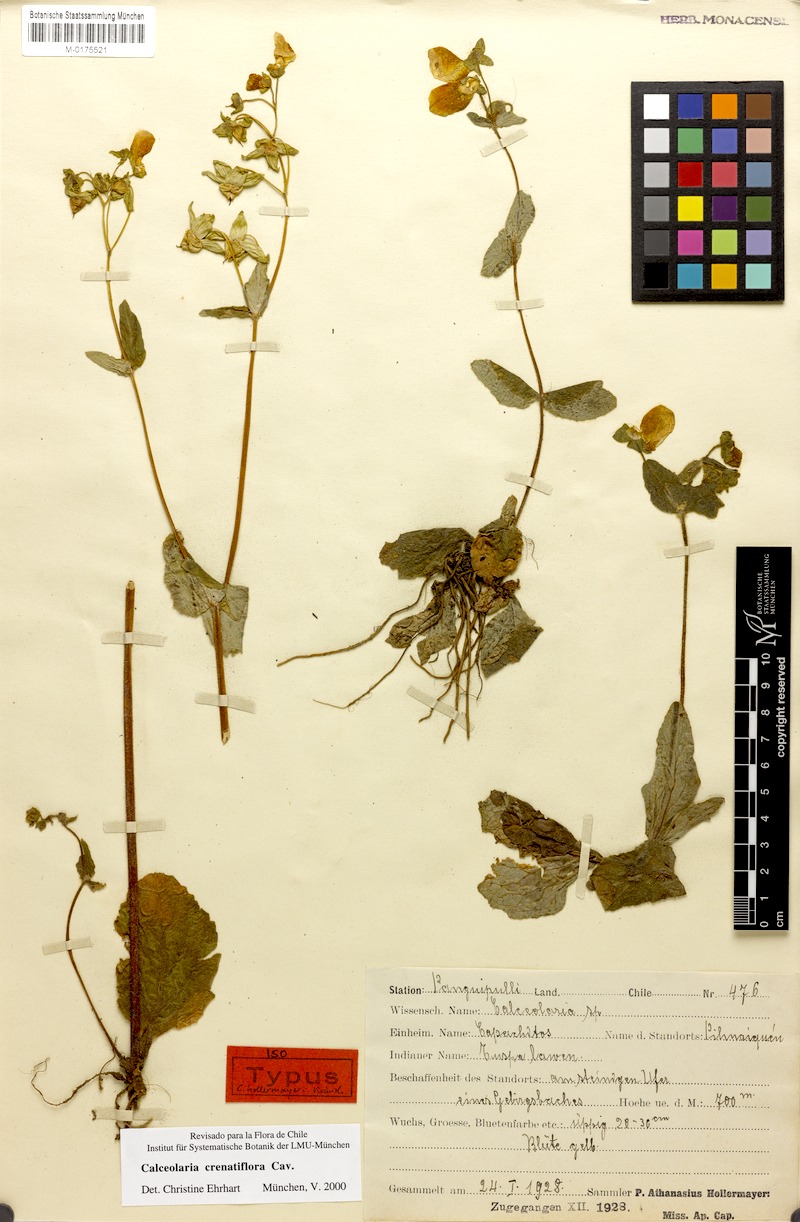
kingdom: Plantae
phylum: Tracheophyta
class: Magnoliopsida
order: Lamiales
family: Calceolariaceae
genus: Calceolaria
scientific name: Calceolaria crenatiflora
